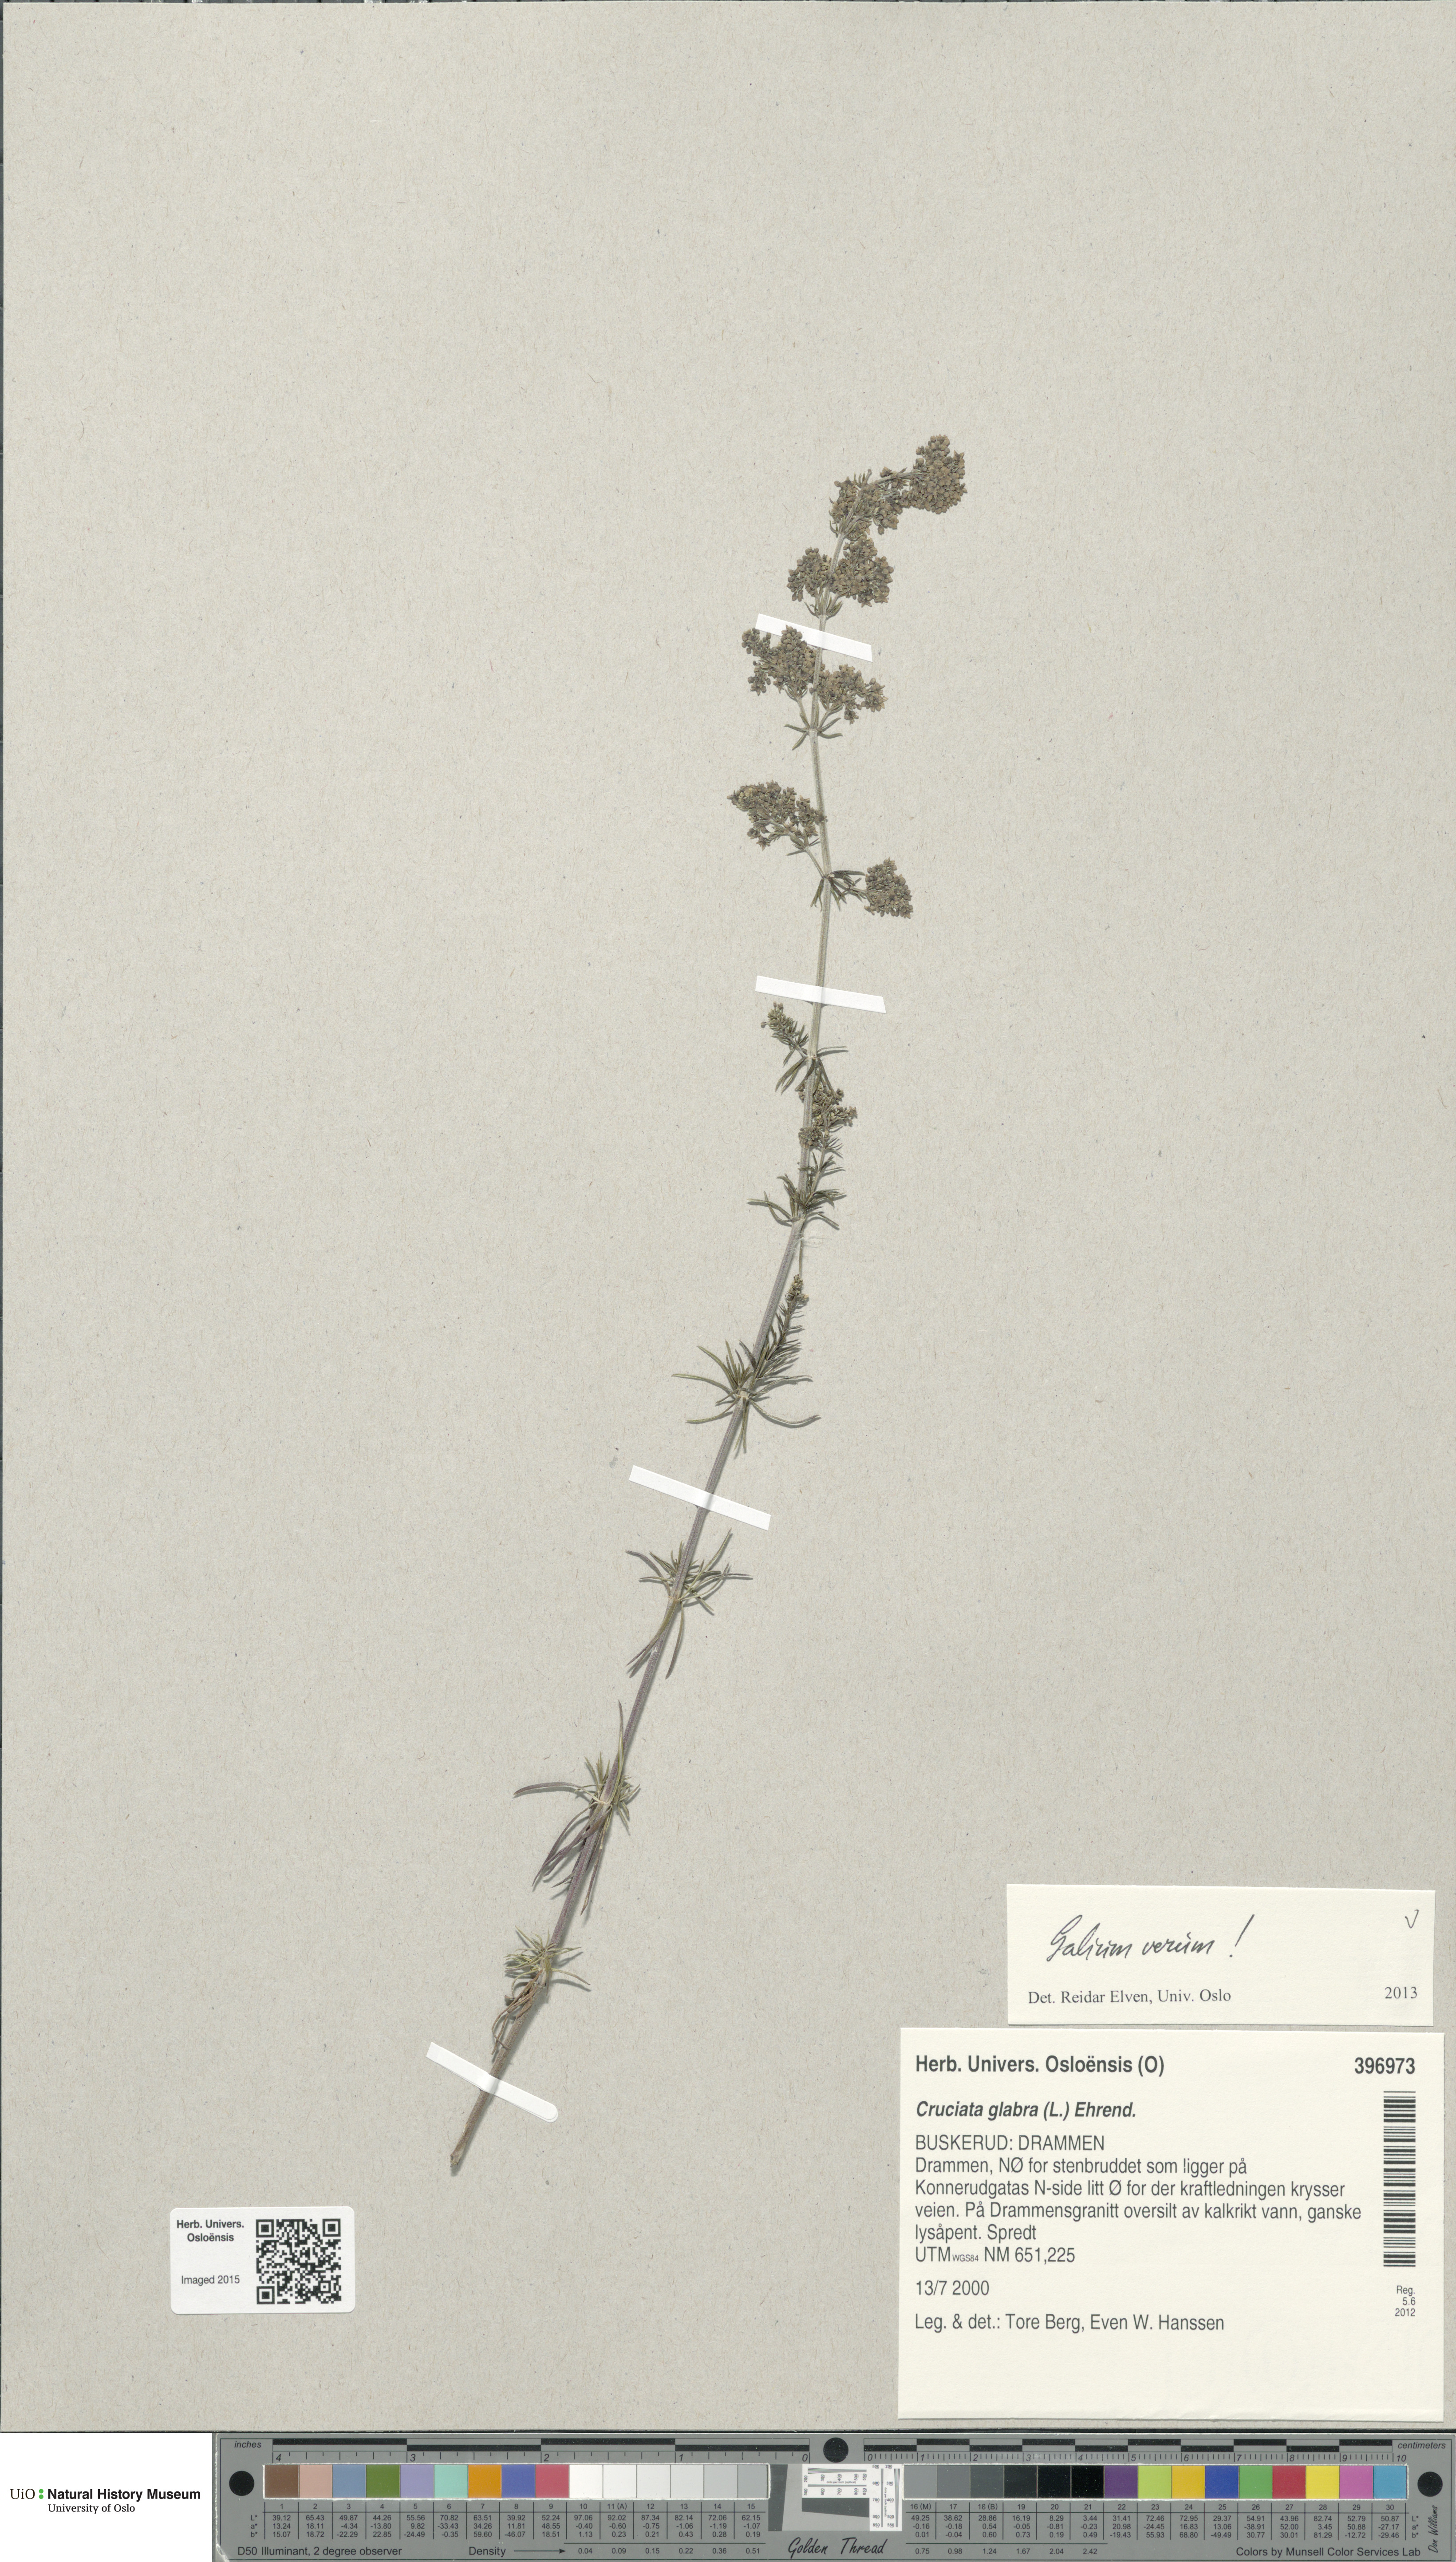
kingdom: Plantae
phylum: Tracheophyta
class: Magnoliopsida
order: Gentianales
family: Rubiaceae
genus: Galium
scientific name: Galium verum
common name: Lady's bedstraw
